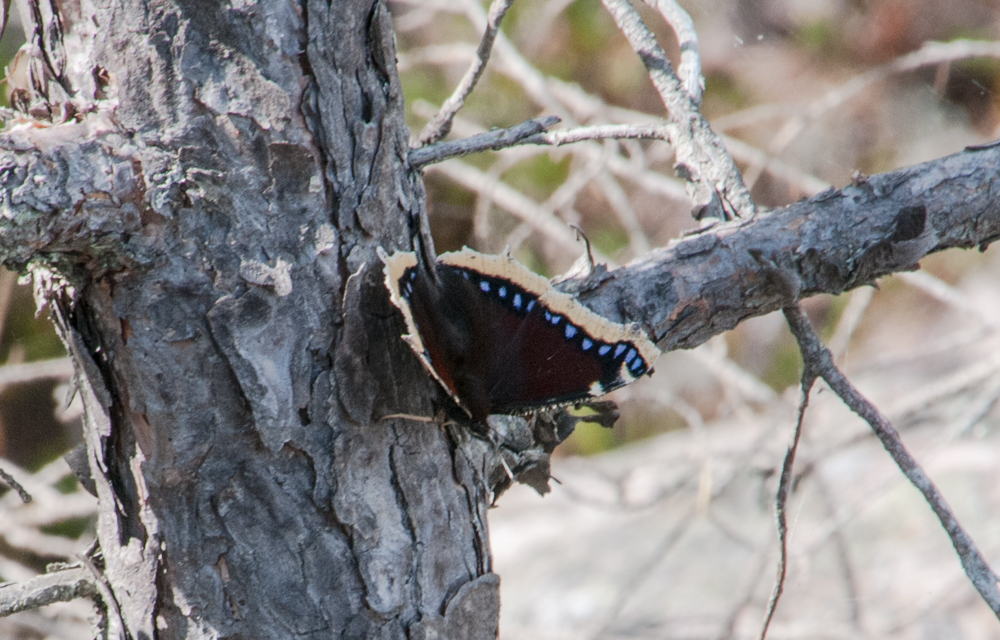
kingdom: Animalia
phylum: Arthropoda
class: Insecta
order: Lepidoptera
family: Nymphalidae
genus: Nymphalis
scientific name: Nymphalis antiopa
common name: Camberwell beauty
